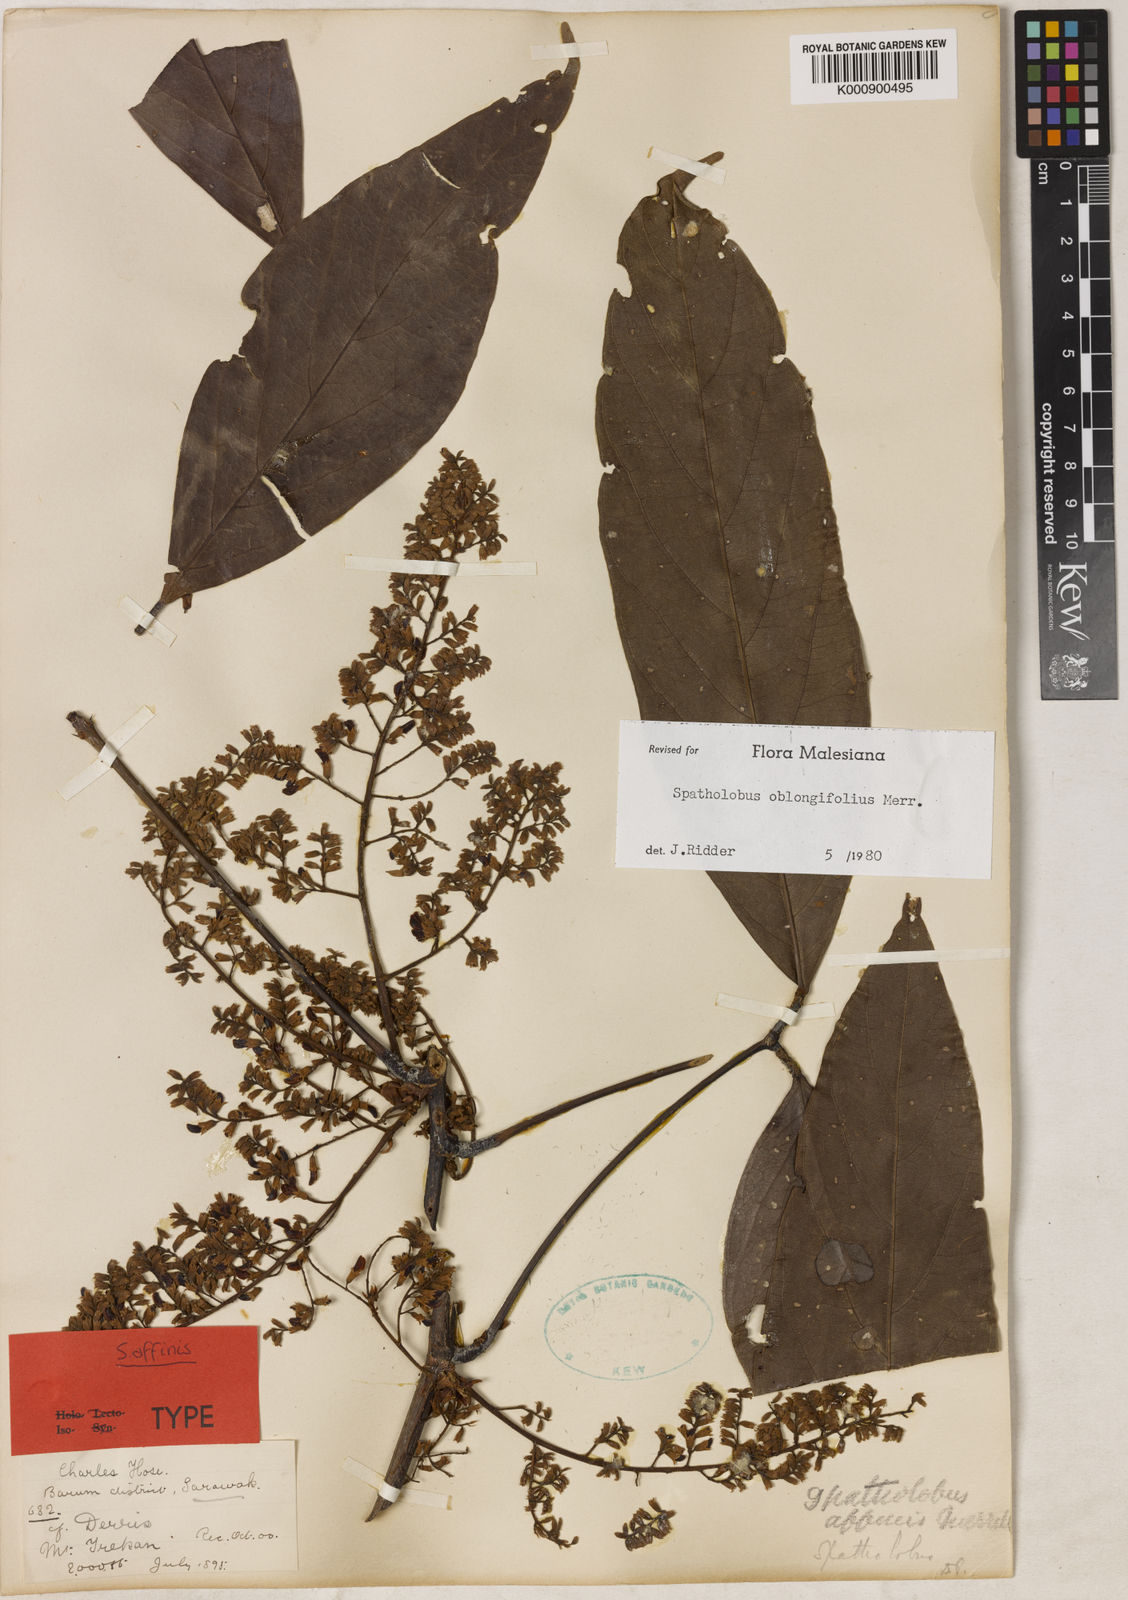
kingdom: Plantae
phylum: Tracheophyta
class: Magnoliopsida
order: Fabales
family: Fabaceae
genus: Spatholobus
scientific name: Spatholobus oblongifolius
